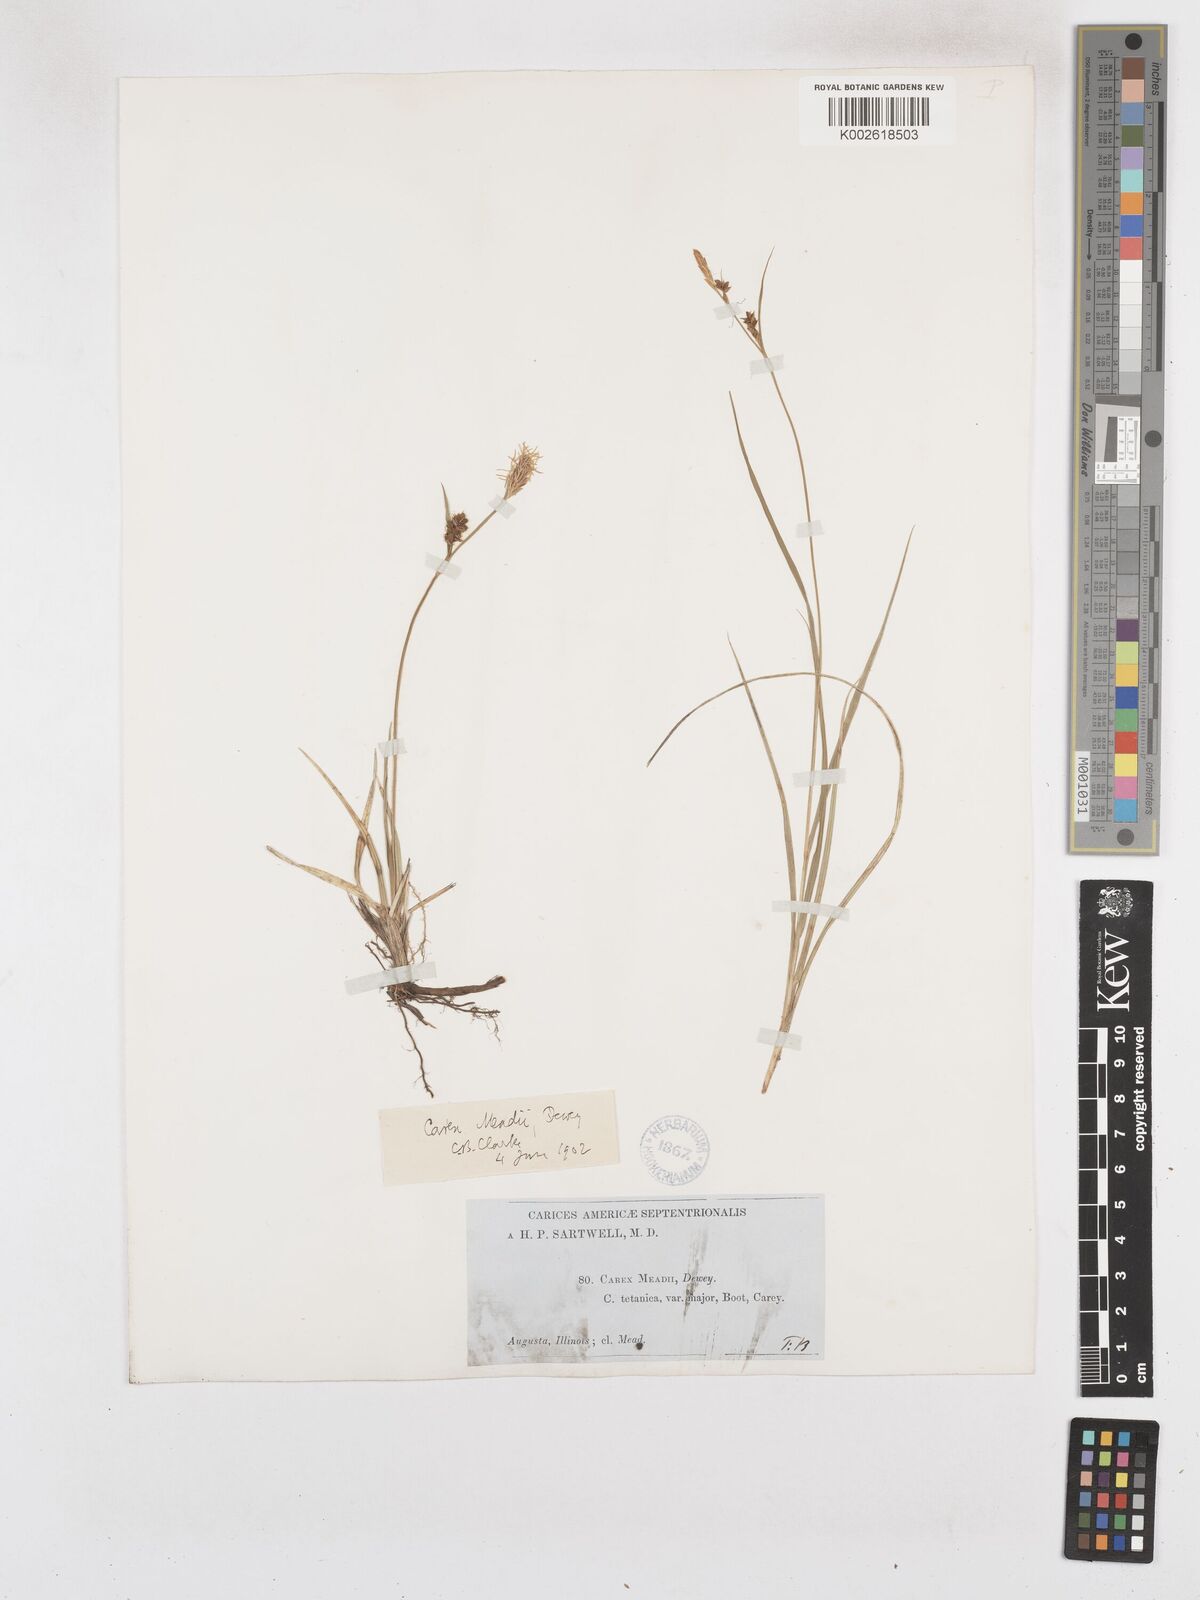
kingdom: Plantae
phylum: Tracheophyta
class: Liliopsida
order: Poales
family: Cyperaceae
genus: Carex
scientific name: Carex meadii
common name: Mead's sedge
